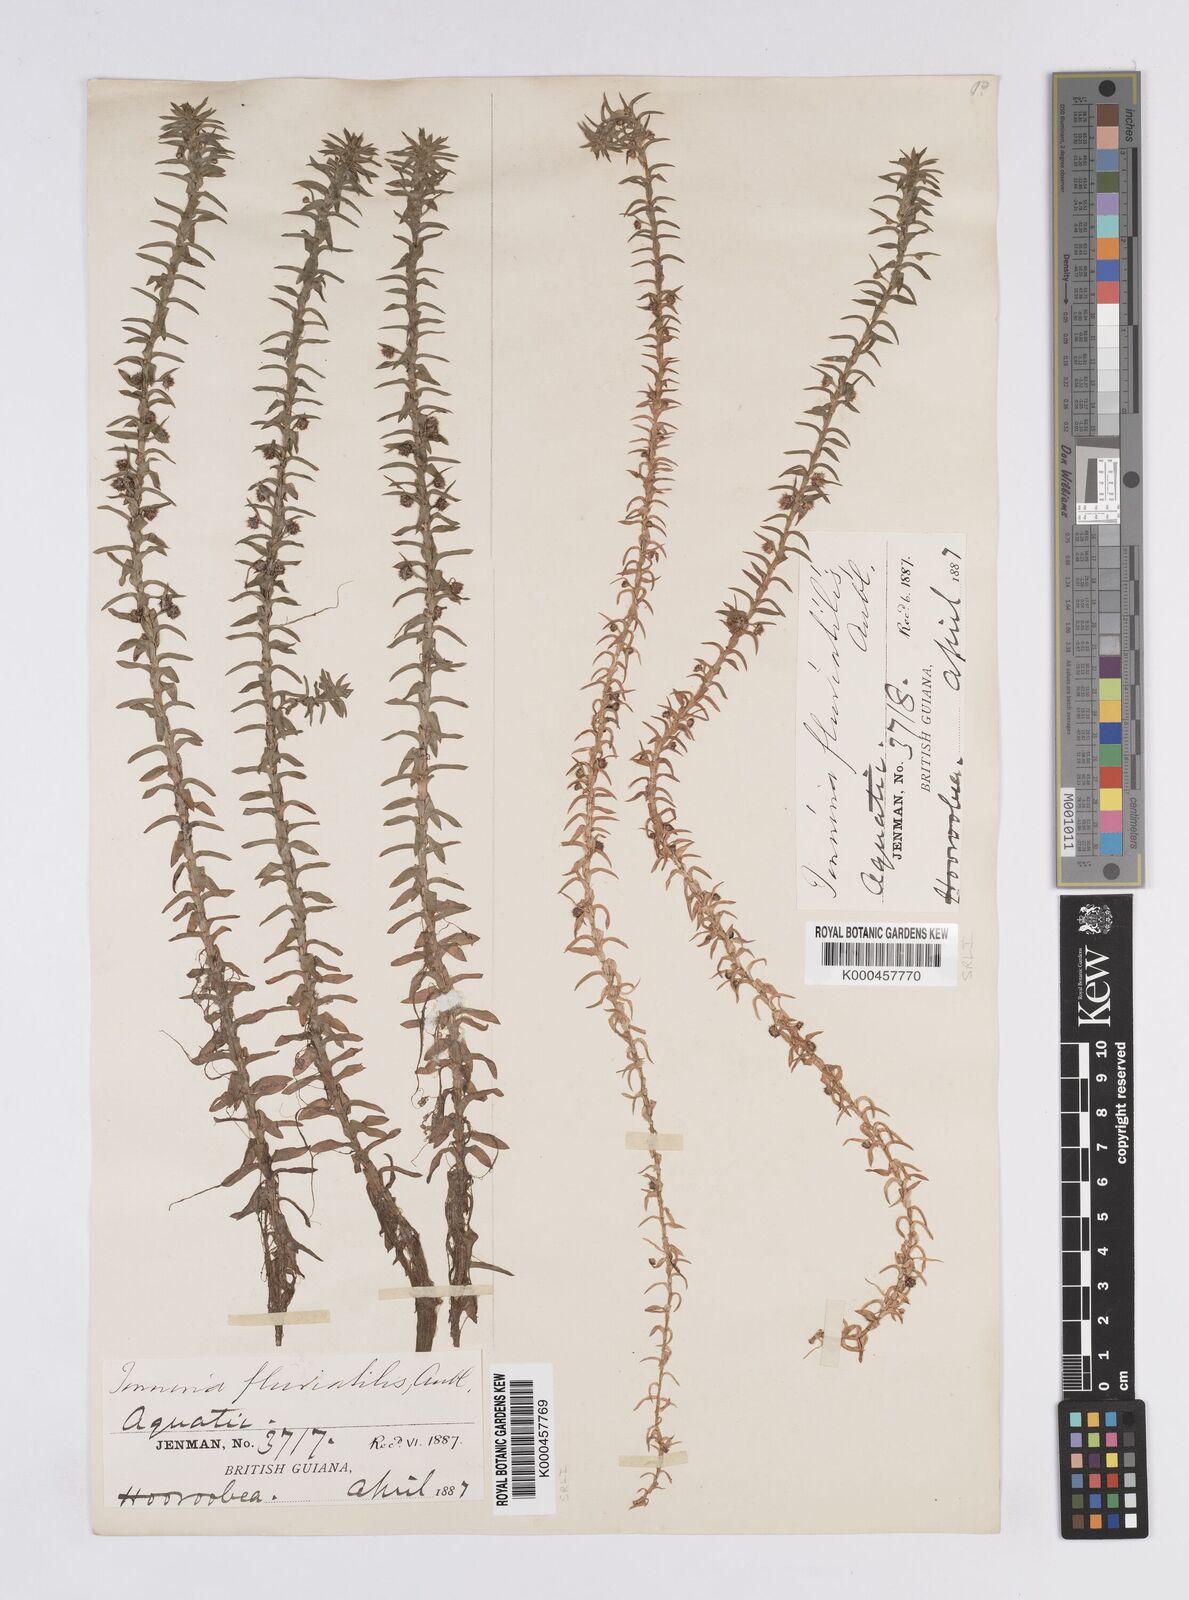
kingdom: Plantae
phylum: Tracheophyta
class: Liliopsida
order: Poales
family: Eriocaulaceae
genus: Paepalanthus
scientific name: Paepalanthus fluviatilis
